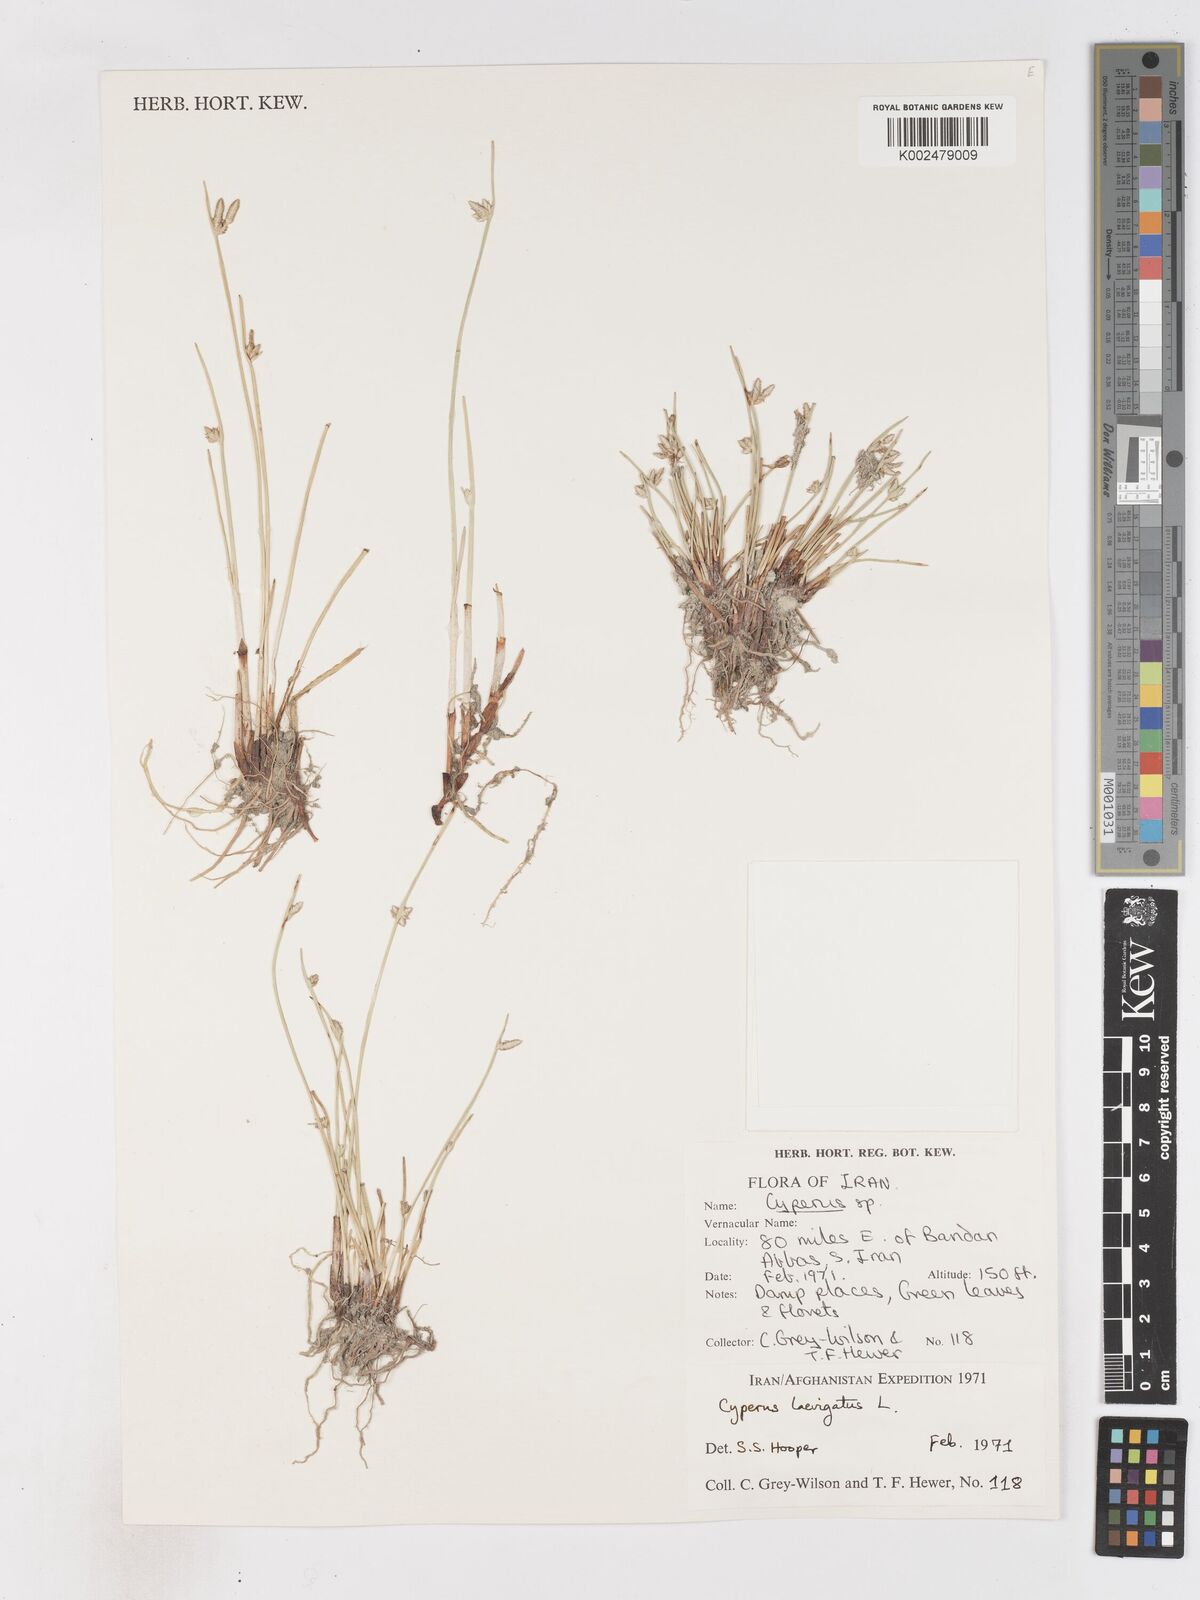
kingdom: Plantae
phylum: Tracheophyta
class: Liliopsida
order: Poales
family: Cyperaceae
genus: Cyperus
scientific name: Cyperus laevigatus
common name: Smooth flat sedge
